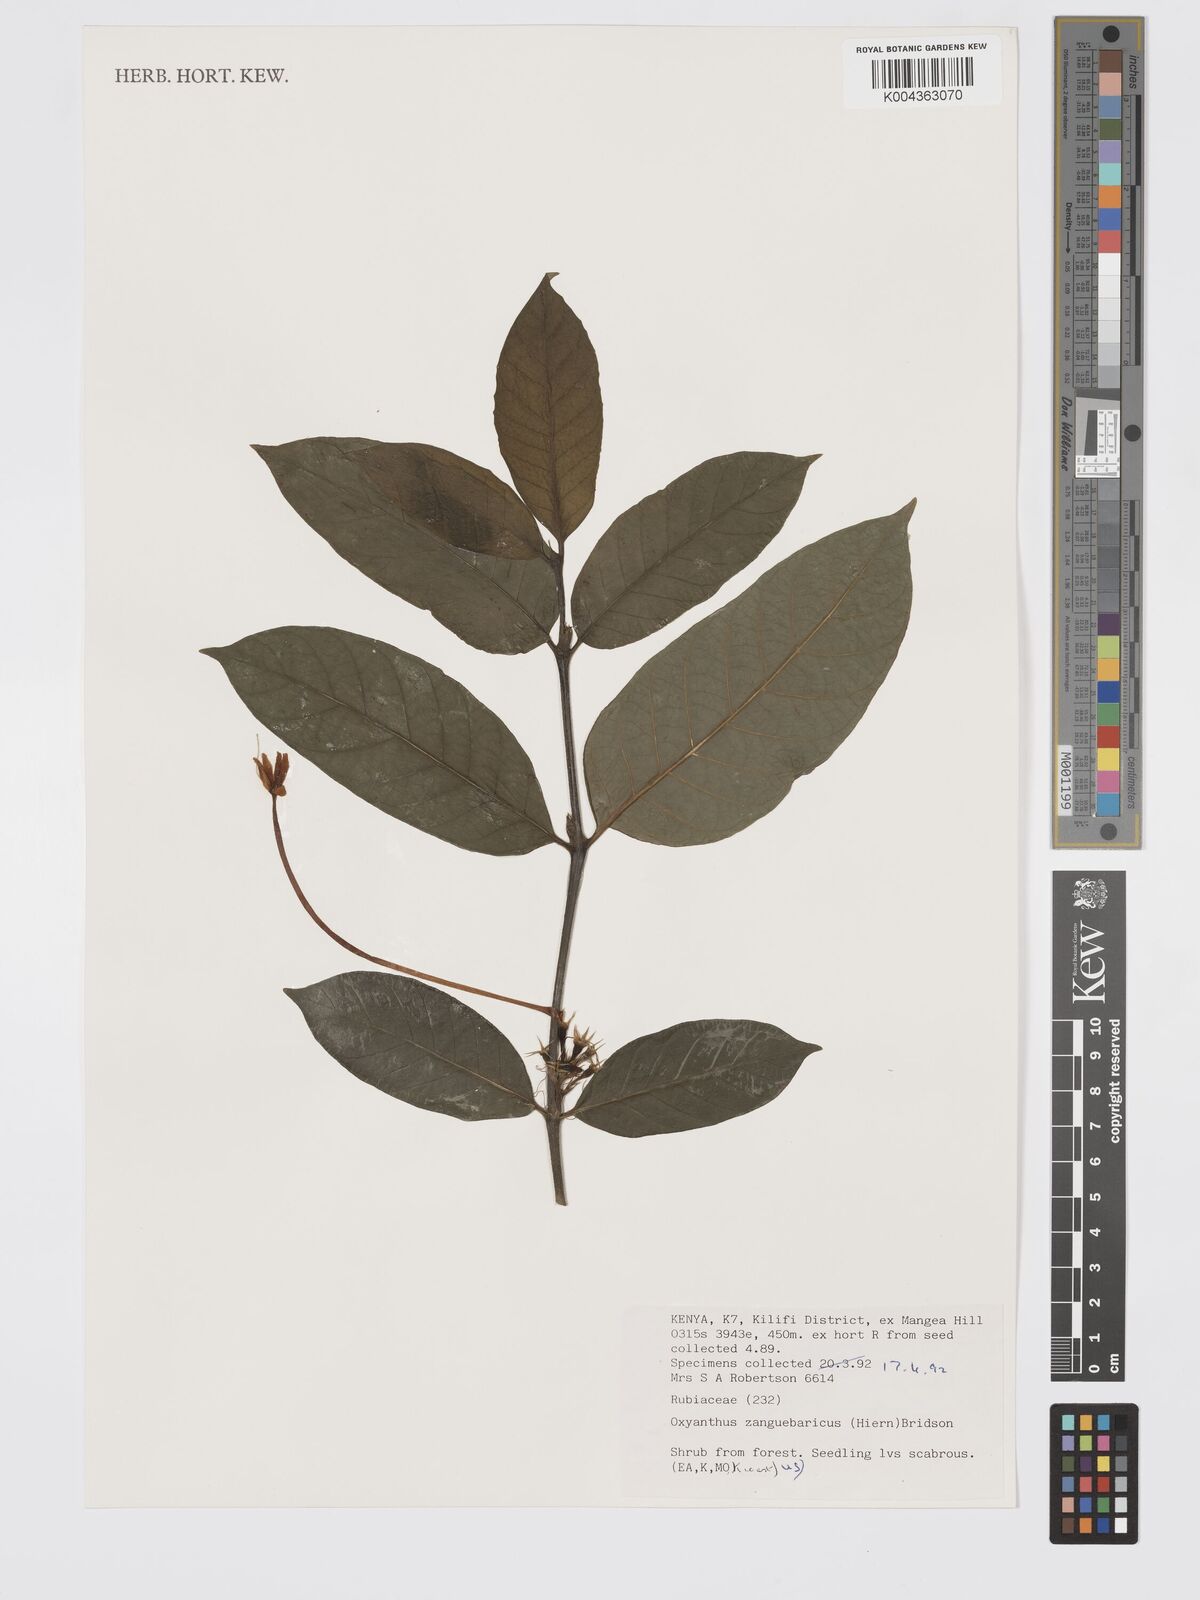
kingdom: Plantae
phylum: Tracheophyta
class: Magnoliopsida
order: Gentianales
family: Rubiaceae
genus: Oxyanthus
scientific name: Oxyanthus zanguebaricus
